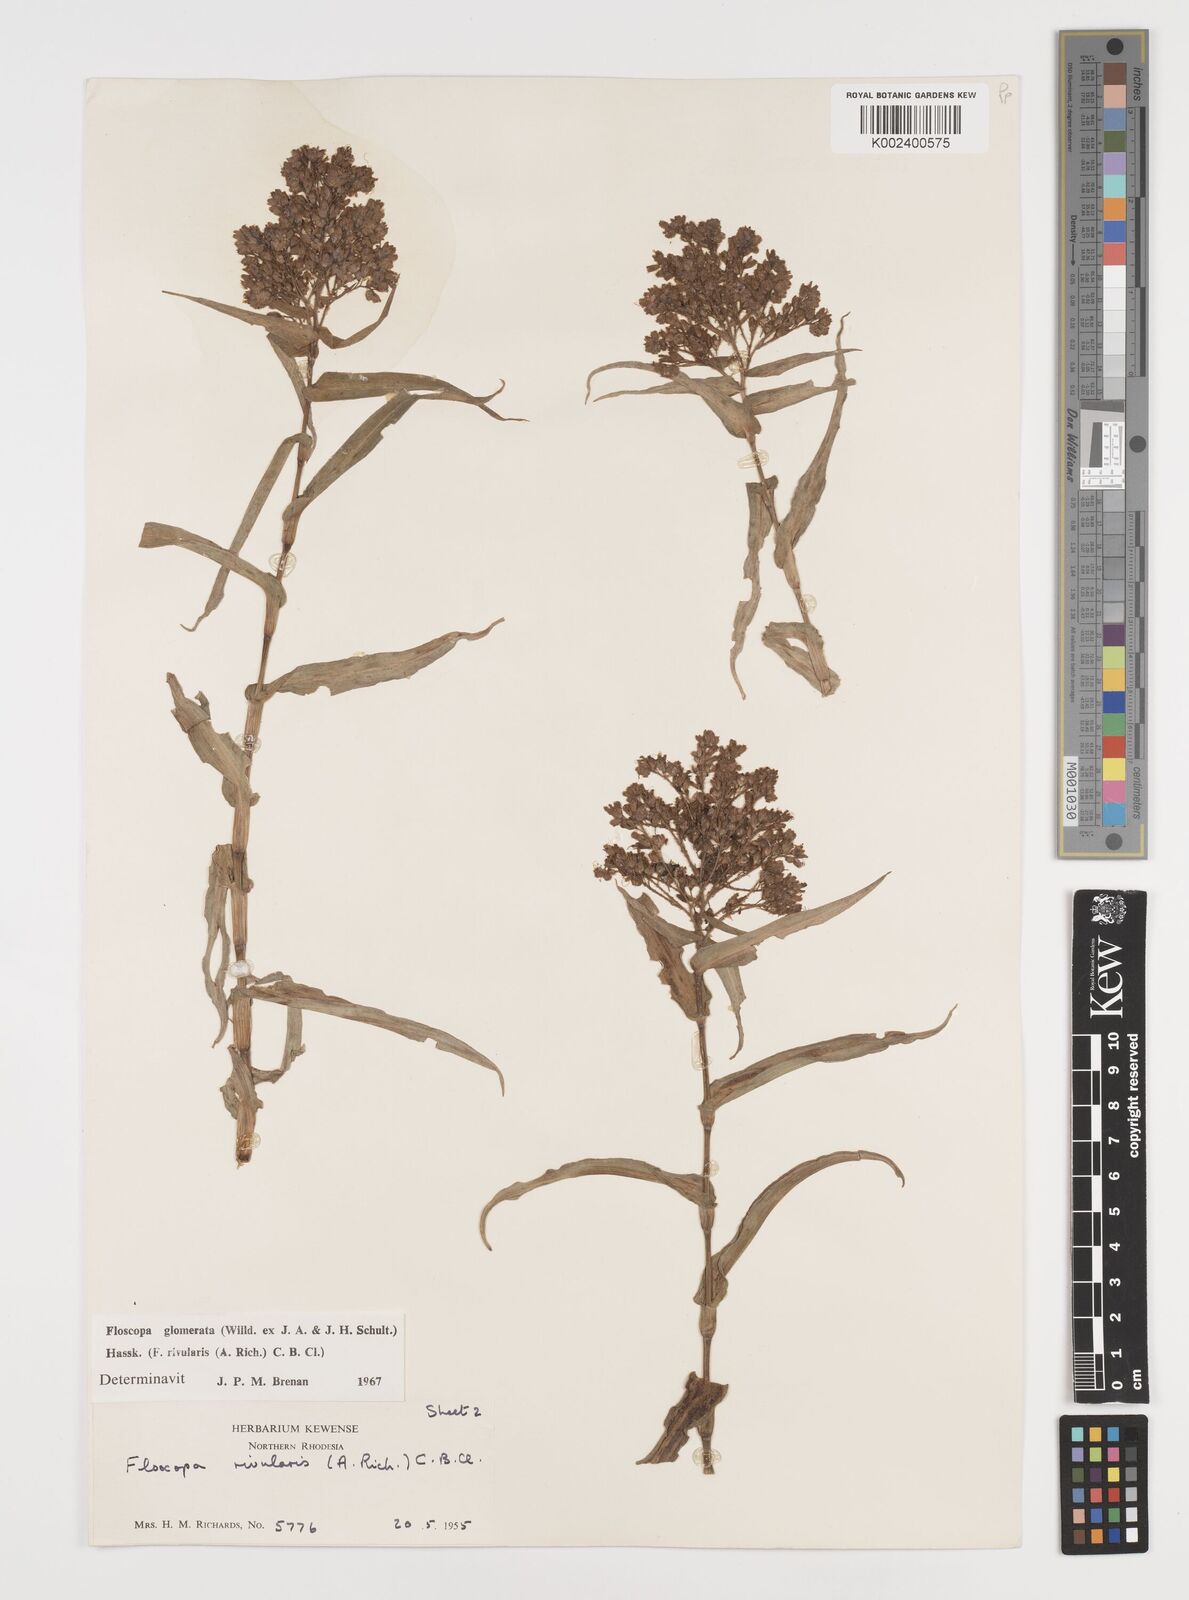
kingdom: Plantae
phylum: Tracheophyta
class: Liliopsida
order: Commelinales
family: Commelinaceae
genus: Floscopa
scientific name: Floscopa glomerata
